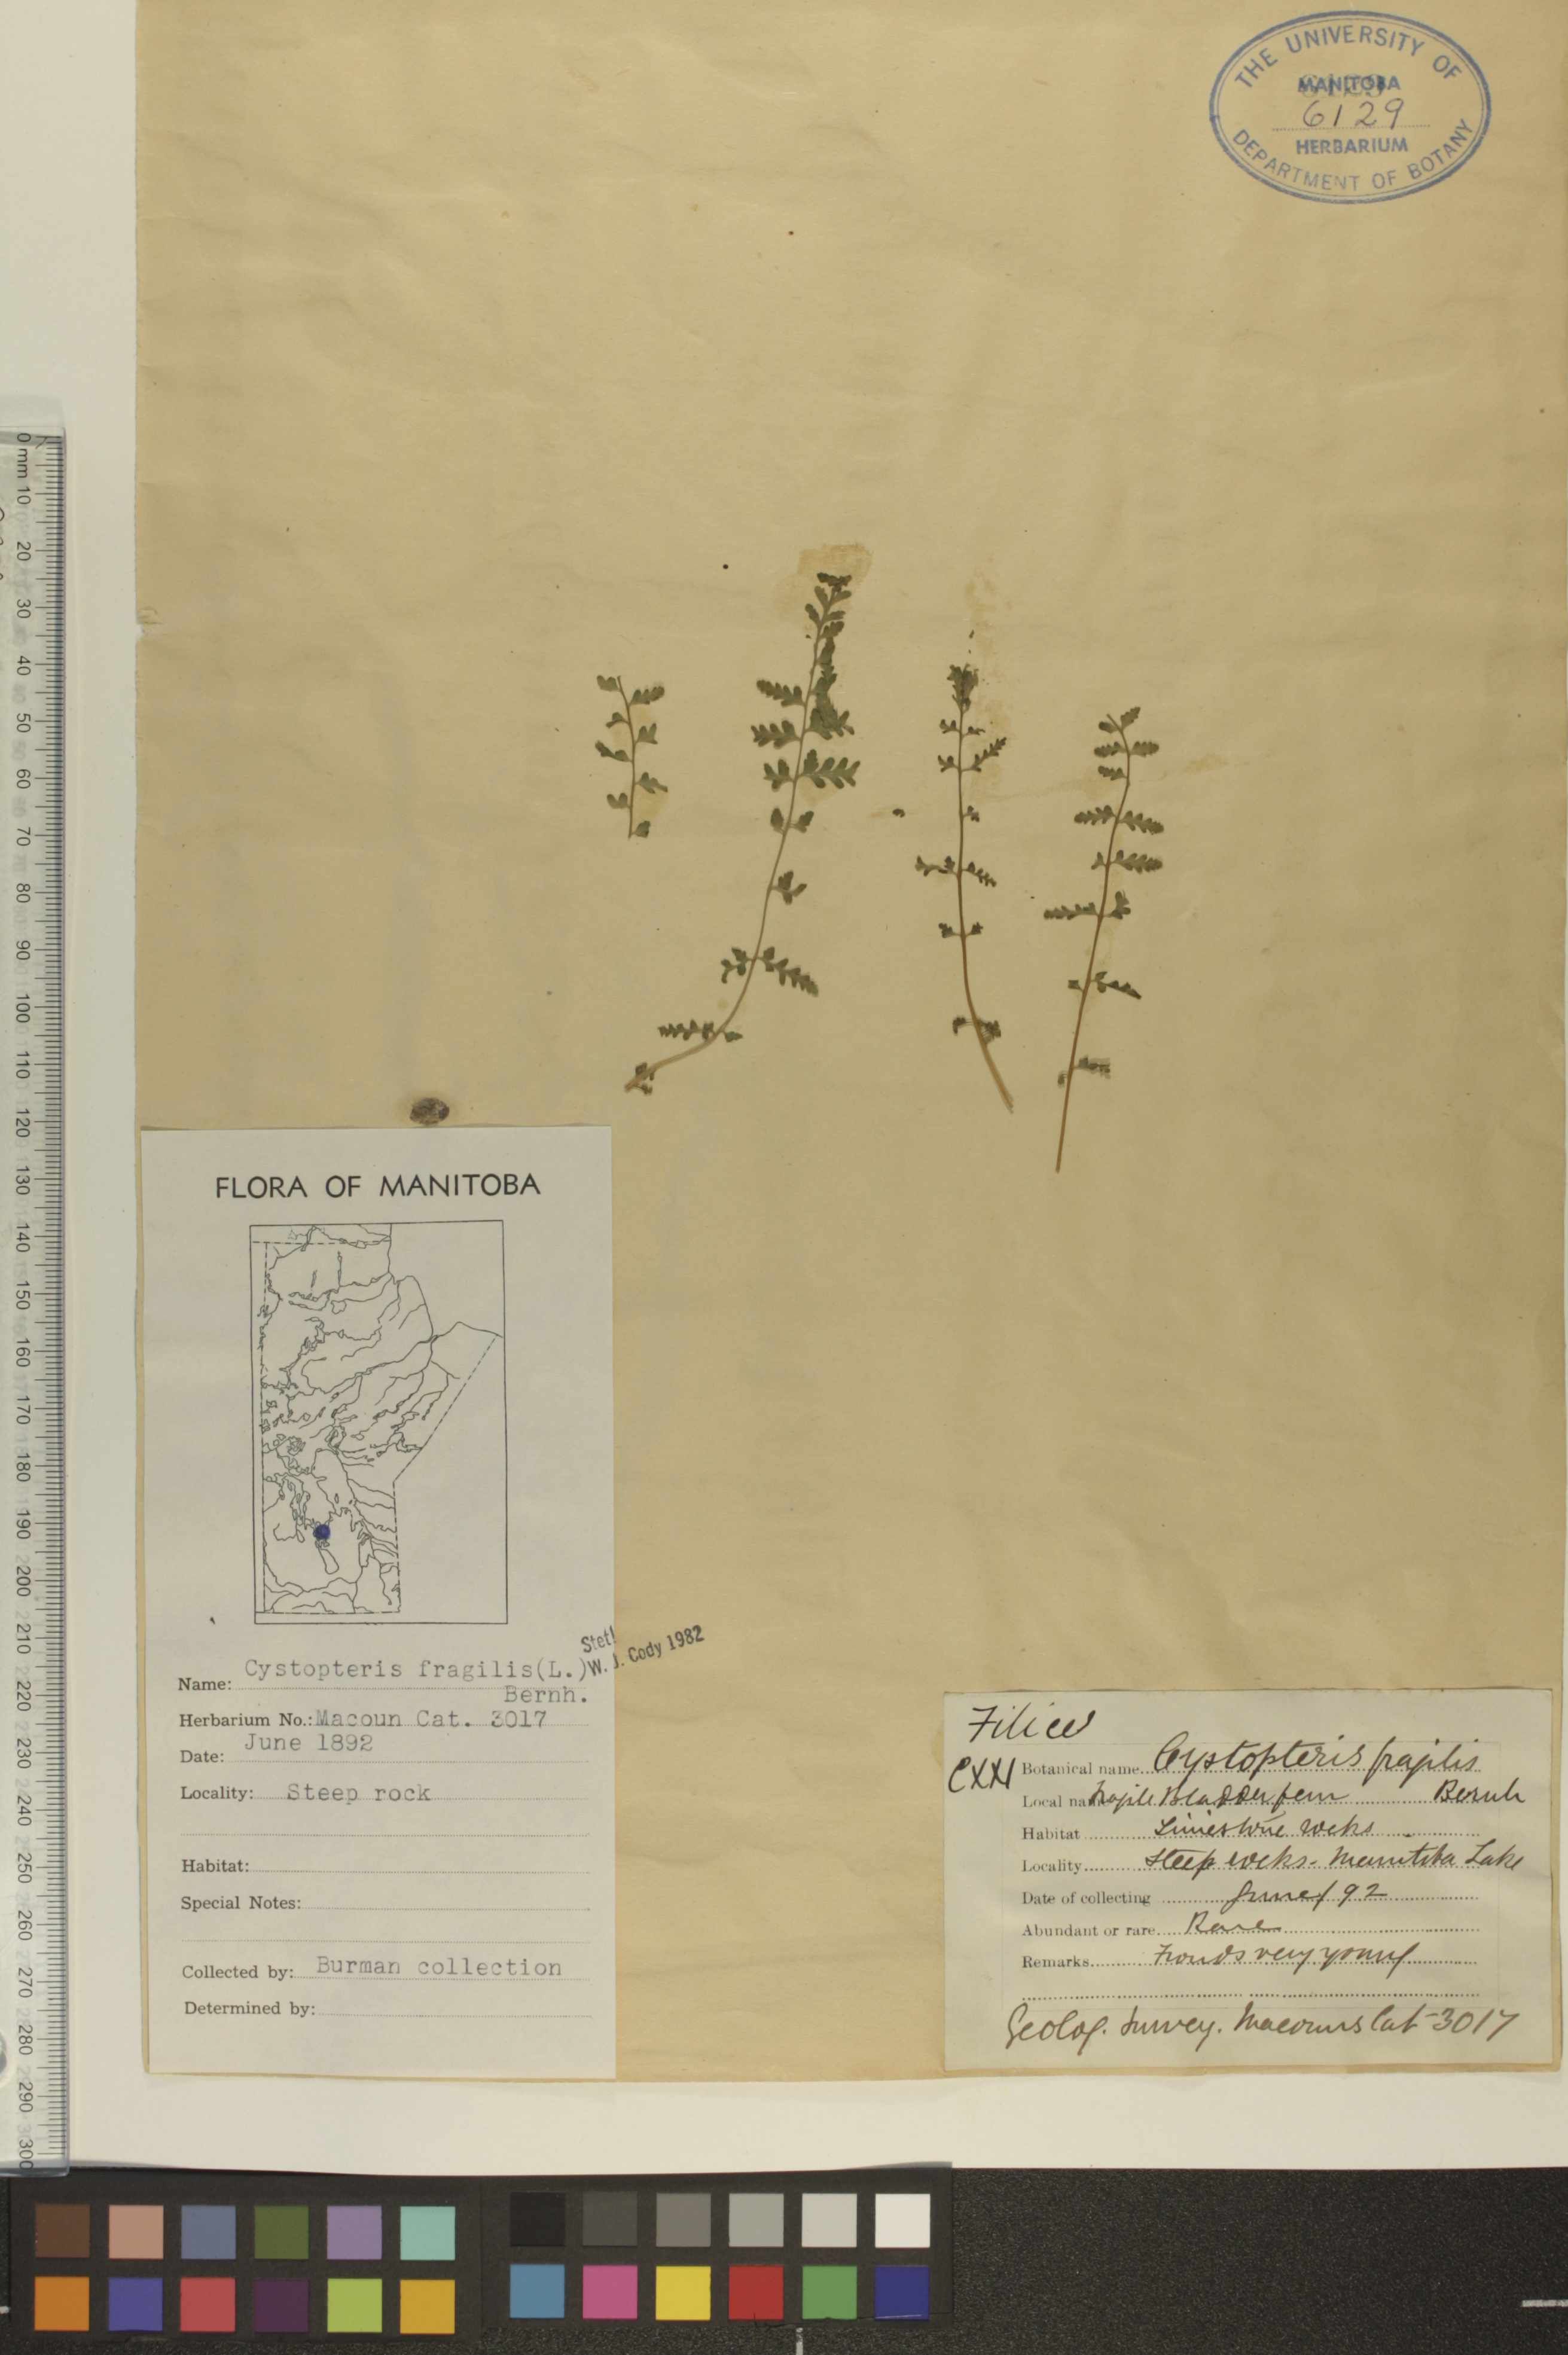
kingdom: Plantae
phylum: Tracheophyta
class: Polypodiopsida
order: Polypodiales
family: Cystopteridaceae
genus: Cystopteris
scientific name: Cystopteris fragilis
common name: Brittle bladder fern
